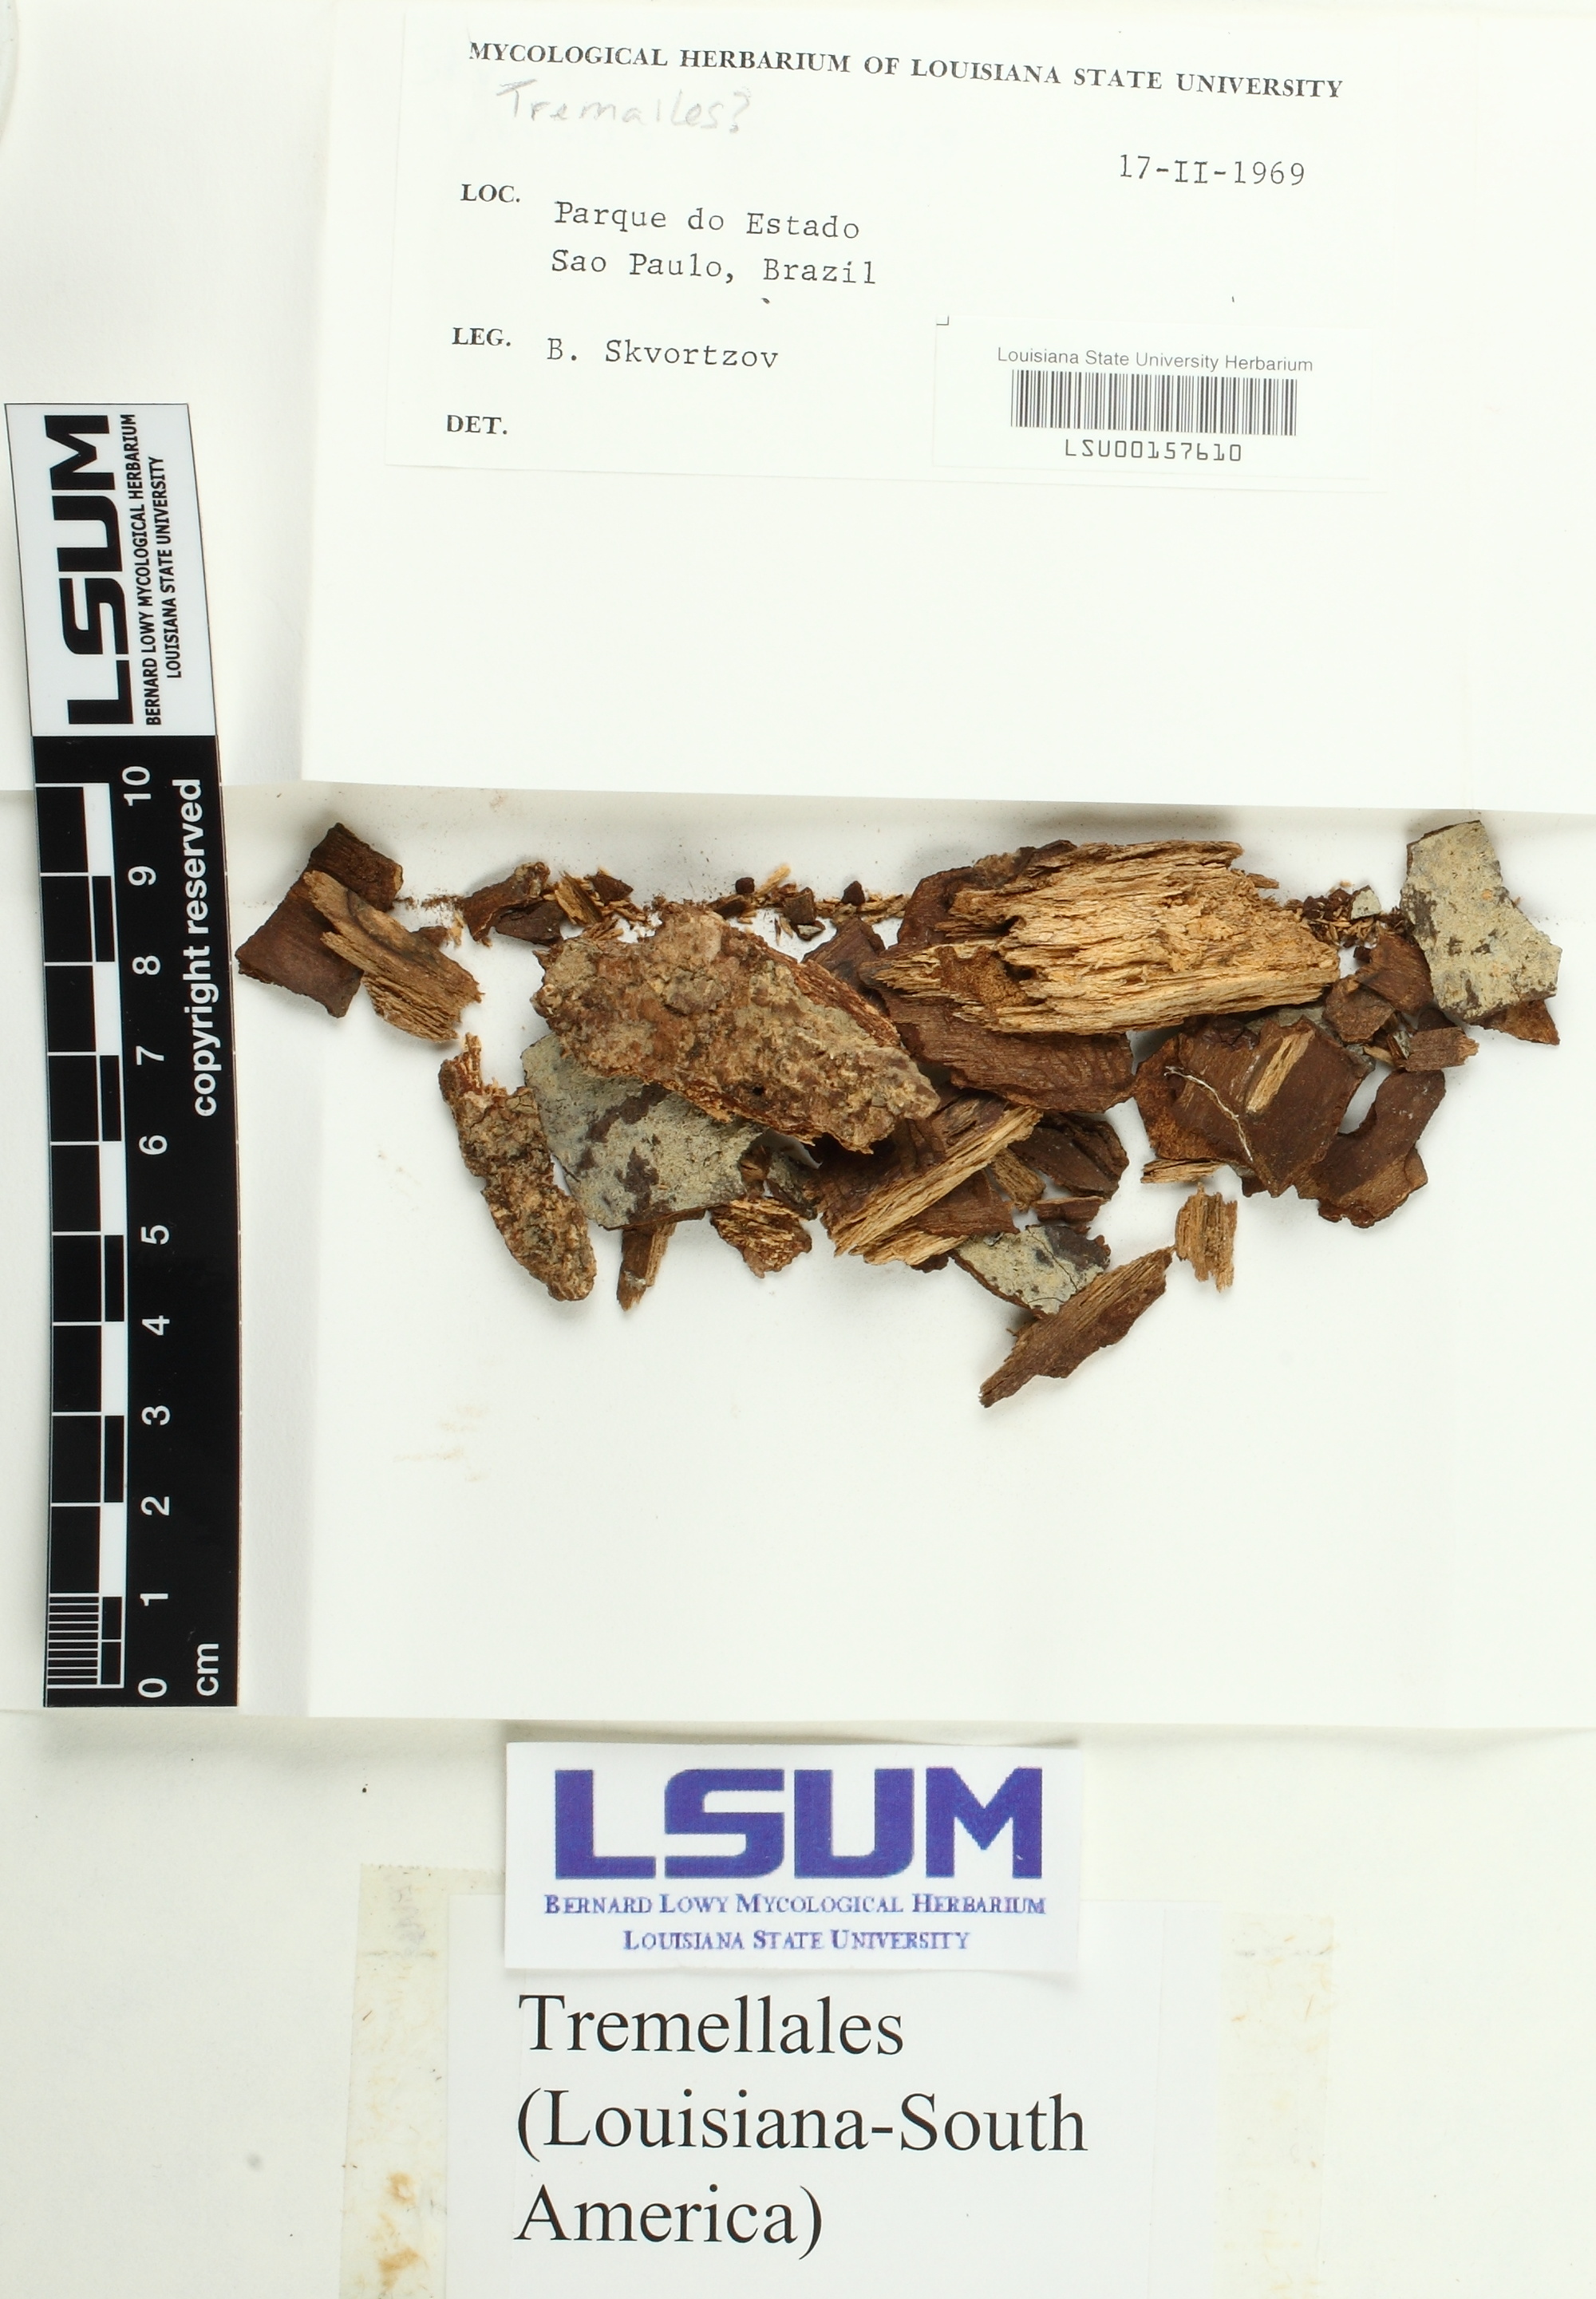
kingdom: Fungi
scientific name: Fungi
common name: Fungi
